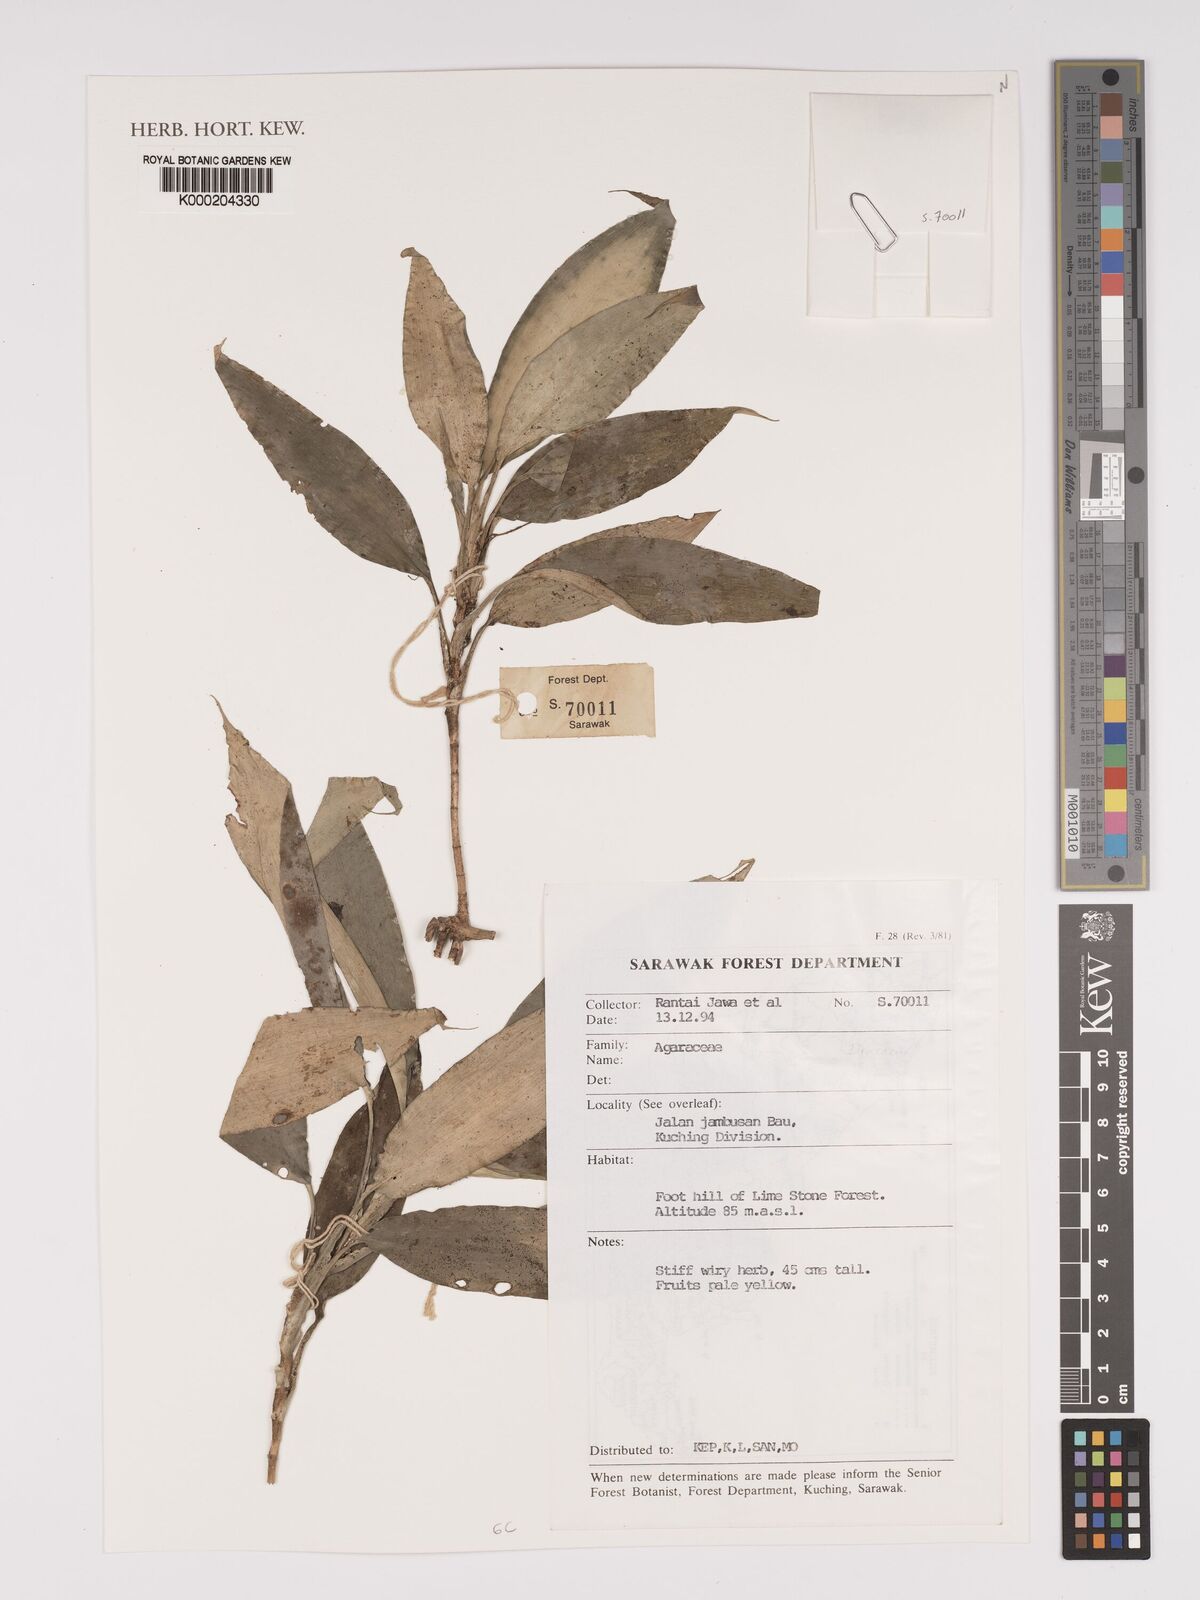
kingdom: Plantae
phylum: Tracheophyta
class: Liliopsida
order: Asparagales
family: Asparagaceae
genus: Dracaena
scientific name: Dracaena
